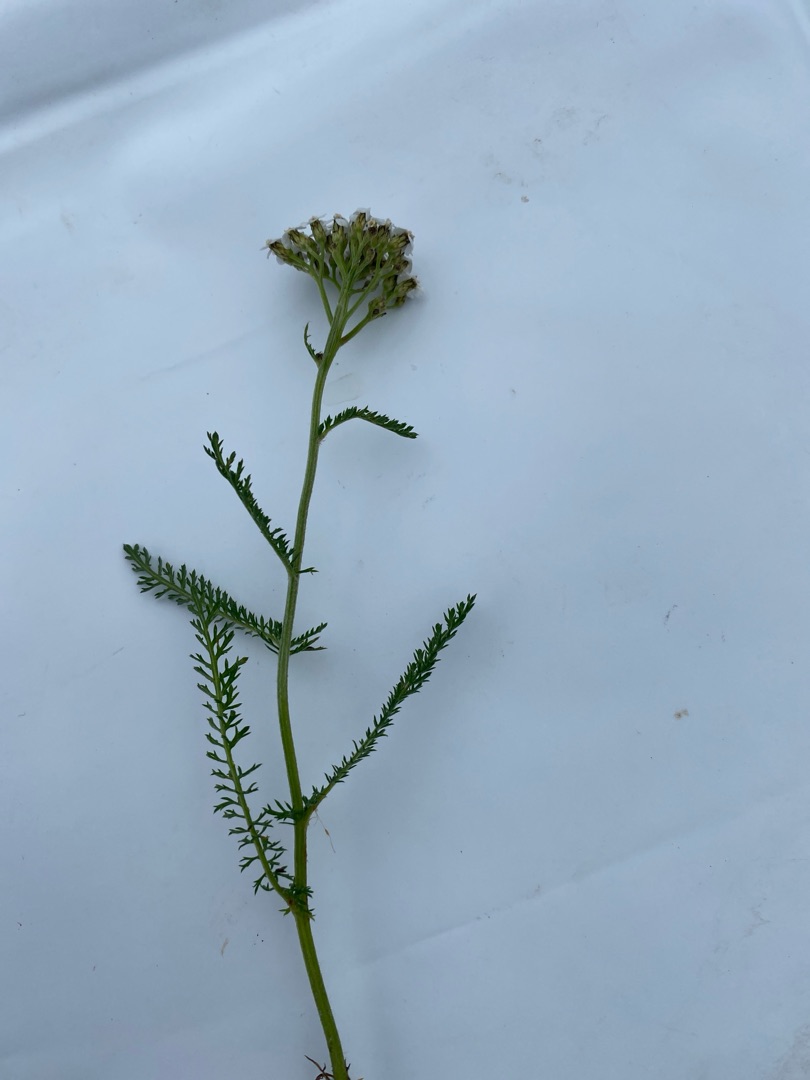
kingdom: Plantae
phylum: Tracheophyta
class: Magnoliopsida
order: Asterales
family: Asteraceae
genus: Achillea
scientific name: Achillea millefolium
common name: Almindelig røllike
